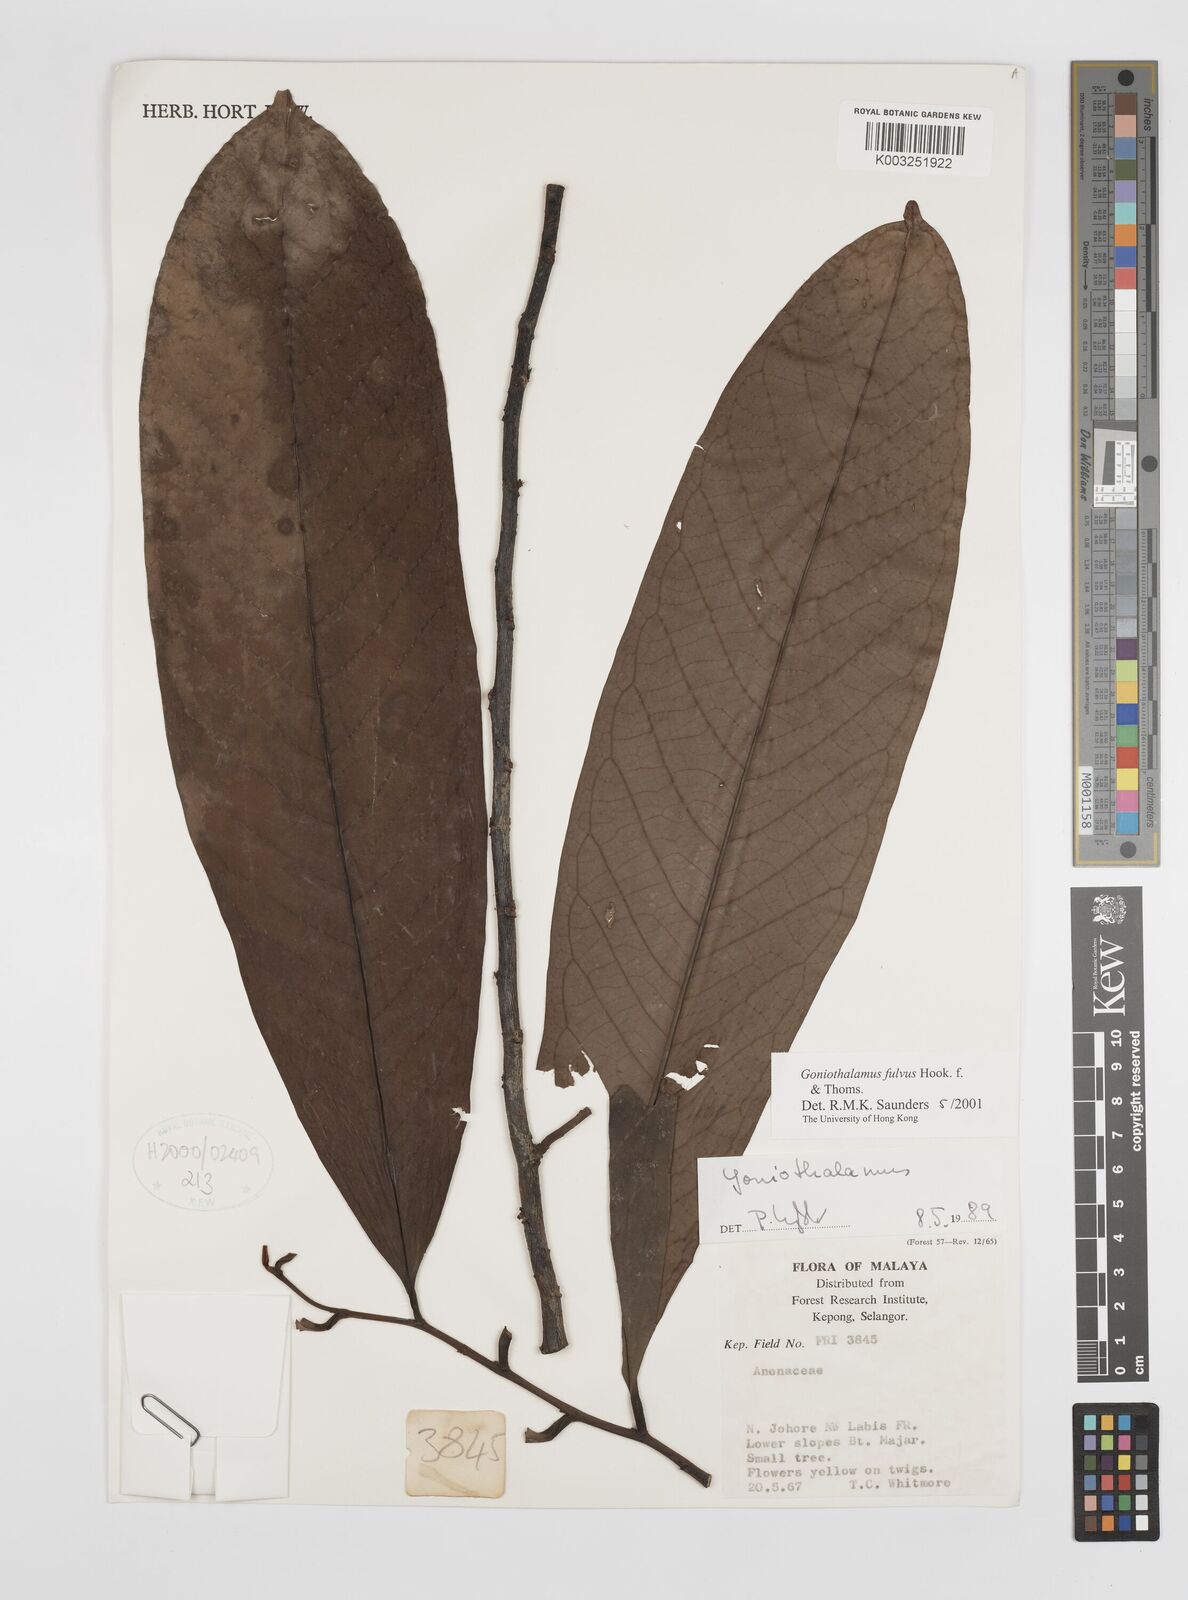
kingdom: Plantae
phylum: Tracheophyta
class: Magnoliopsida
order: Magnoliales
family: Annonaceae
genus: Goniothalamus
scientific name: Goniothalamus fulvus
